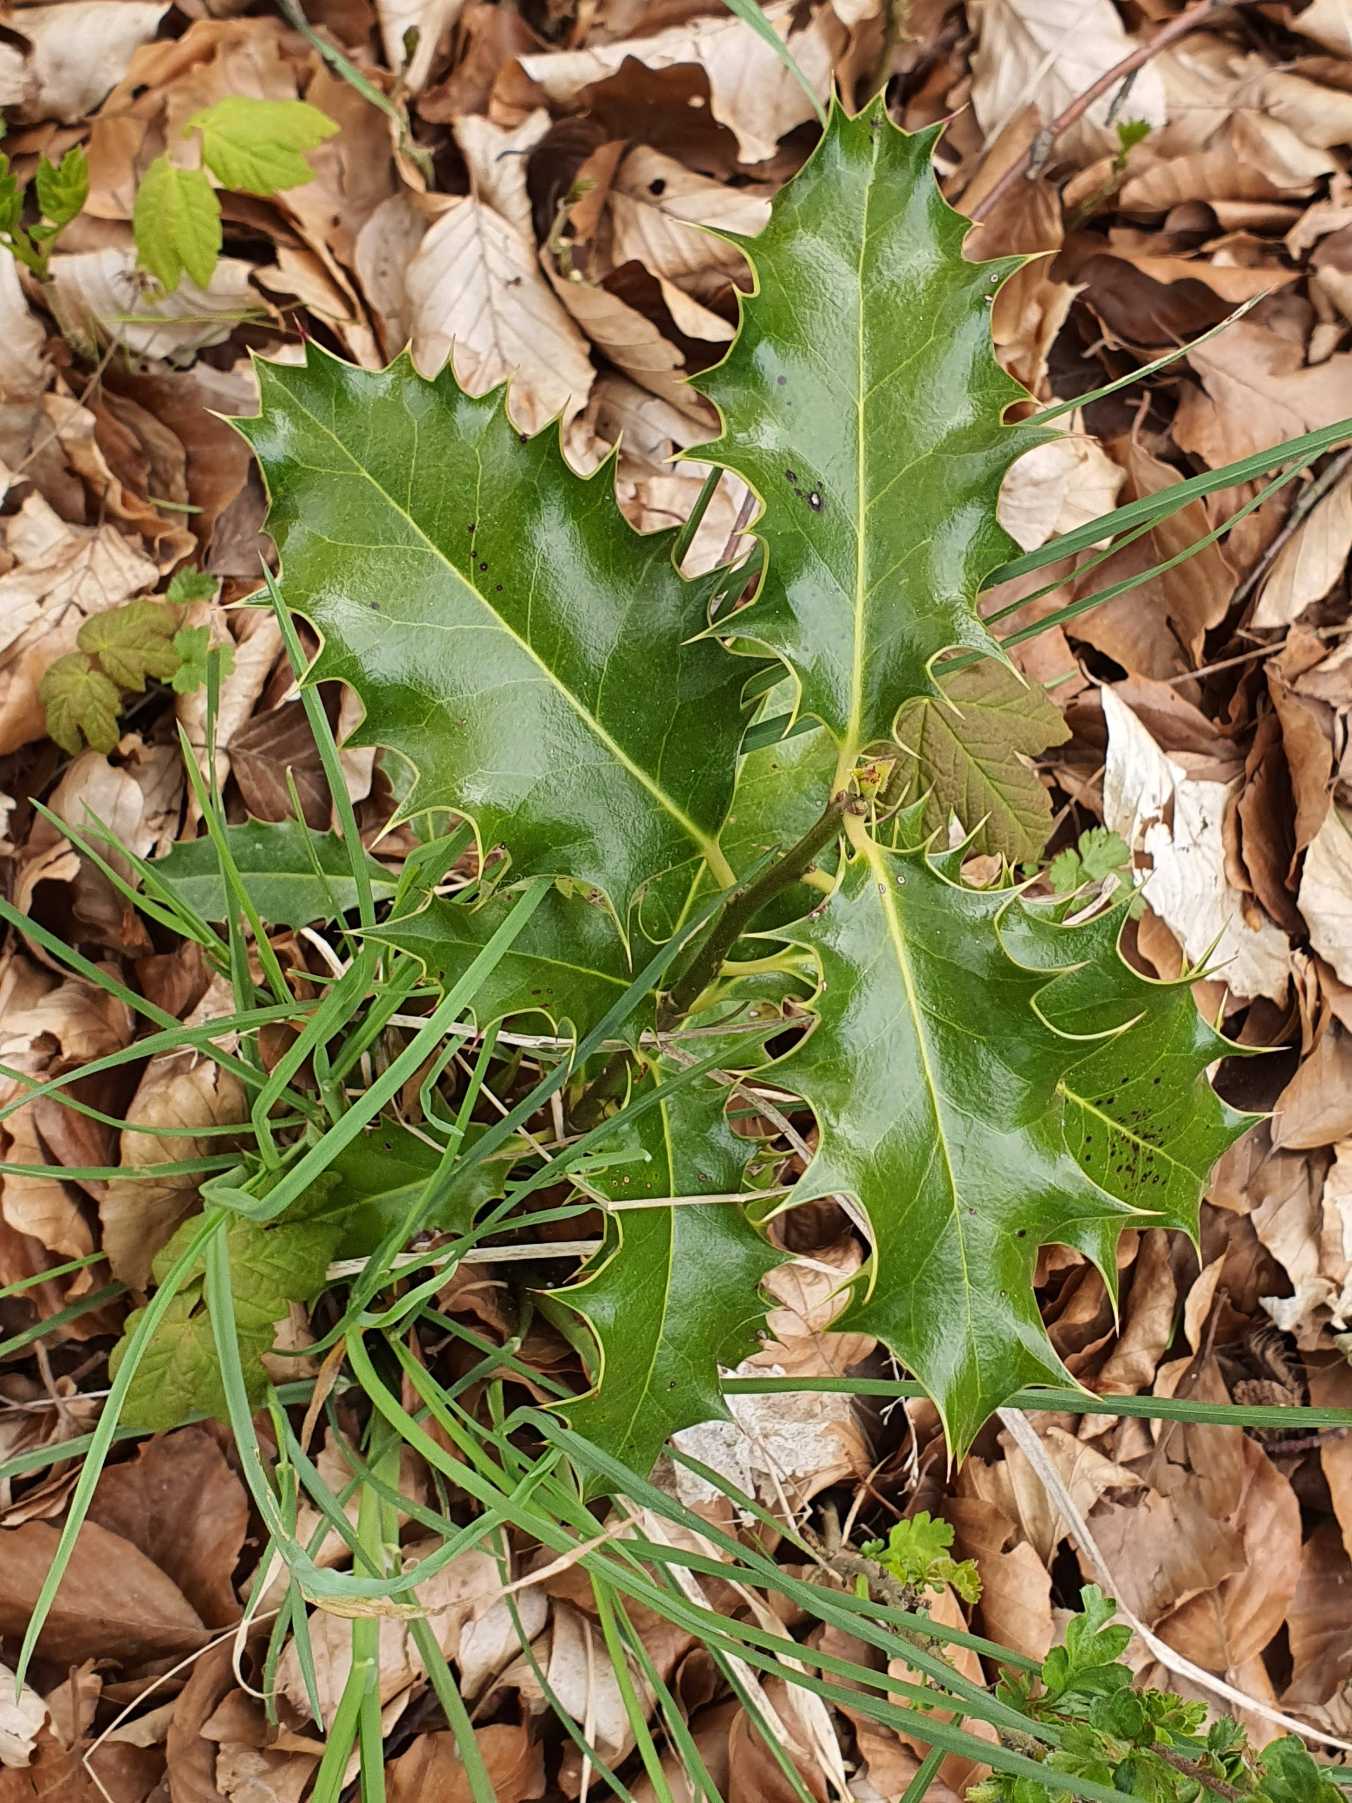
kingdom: Plantae
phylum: Tracheophyta
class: Magnoliopsida
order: Aquifoliales
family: Aquifoliaceae
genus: Ilex
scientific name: Ilex aquifolium
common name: Kristtorn
